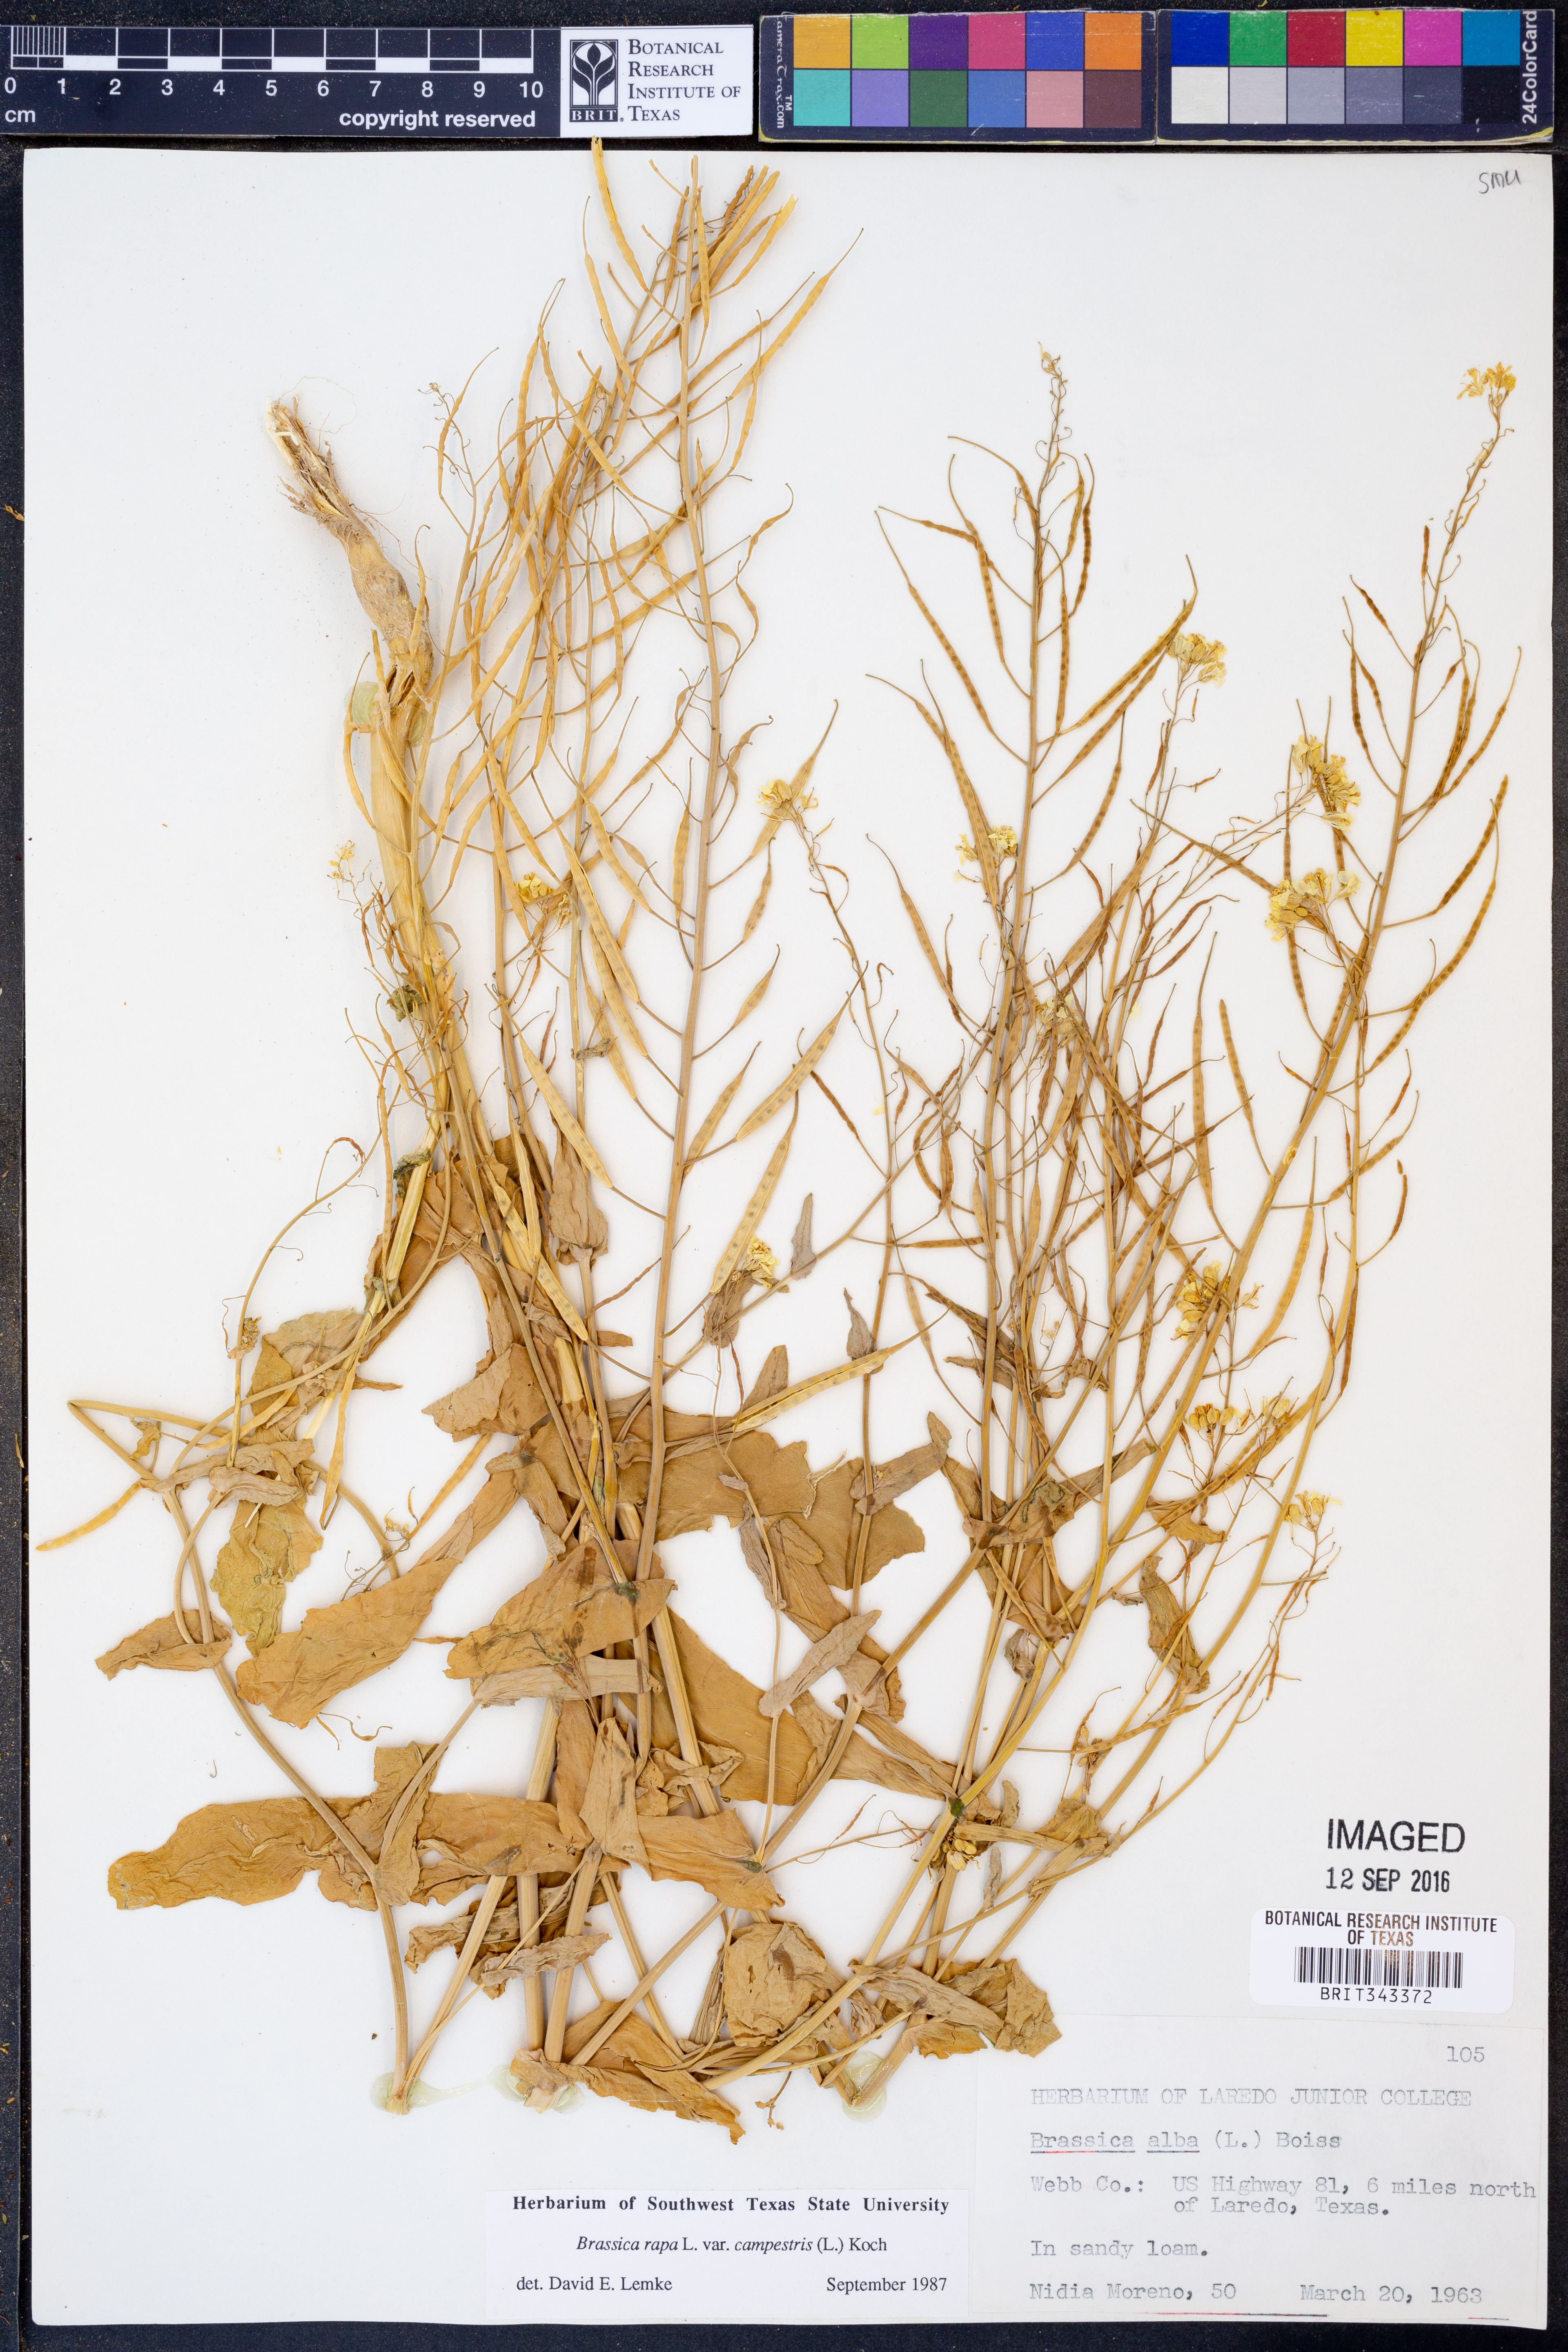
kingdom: Plantae
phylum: Tracheophyta
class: Magnoliopsida
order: Brassicales
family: Brassicaceae
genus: Brassica
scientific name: Brassica rapa
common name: Field mustard
